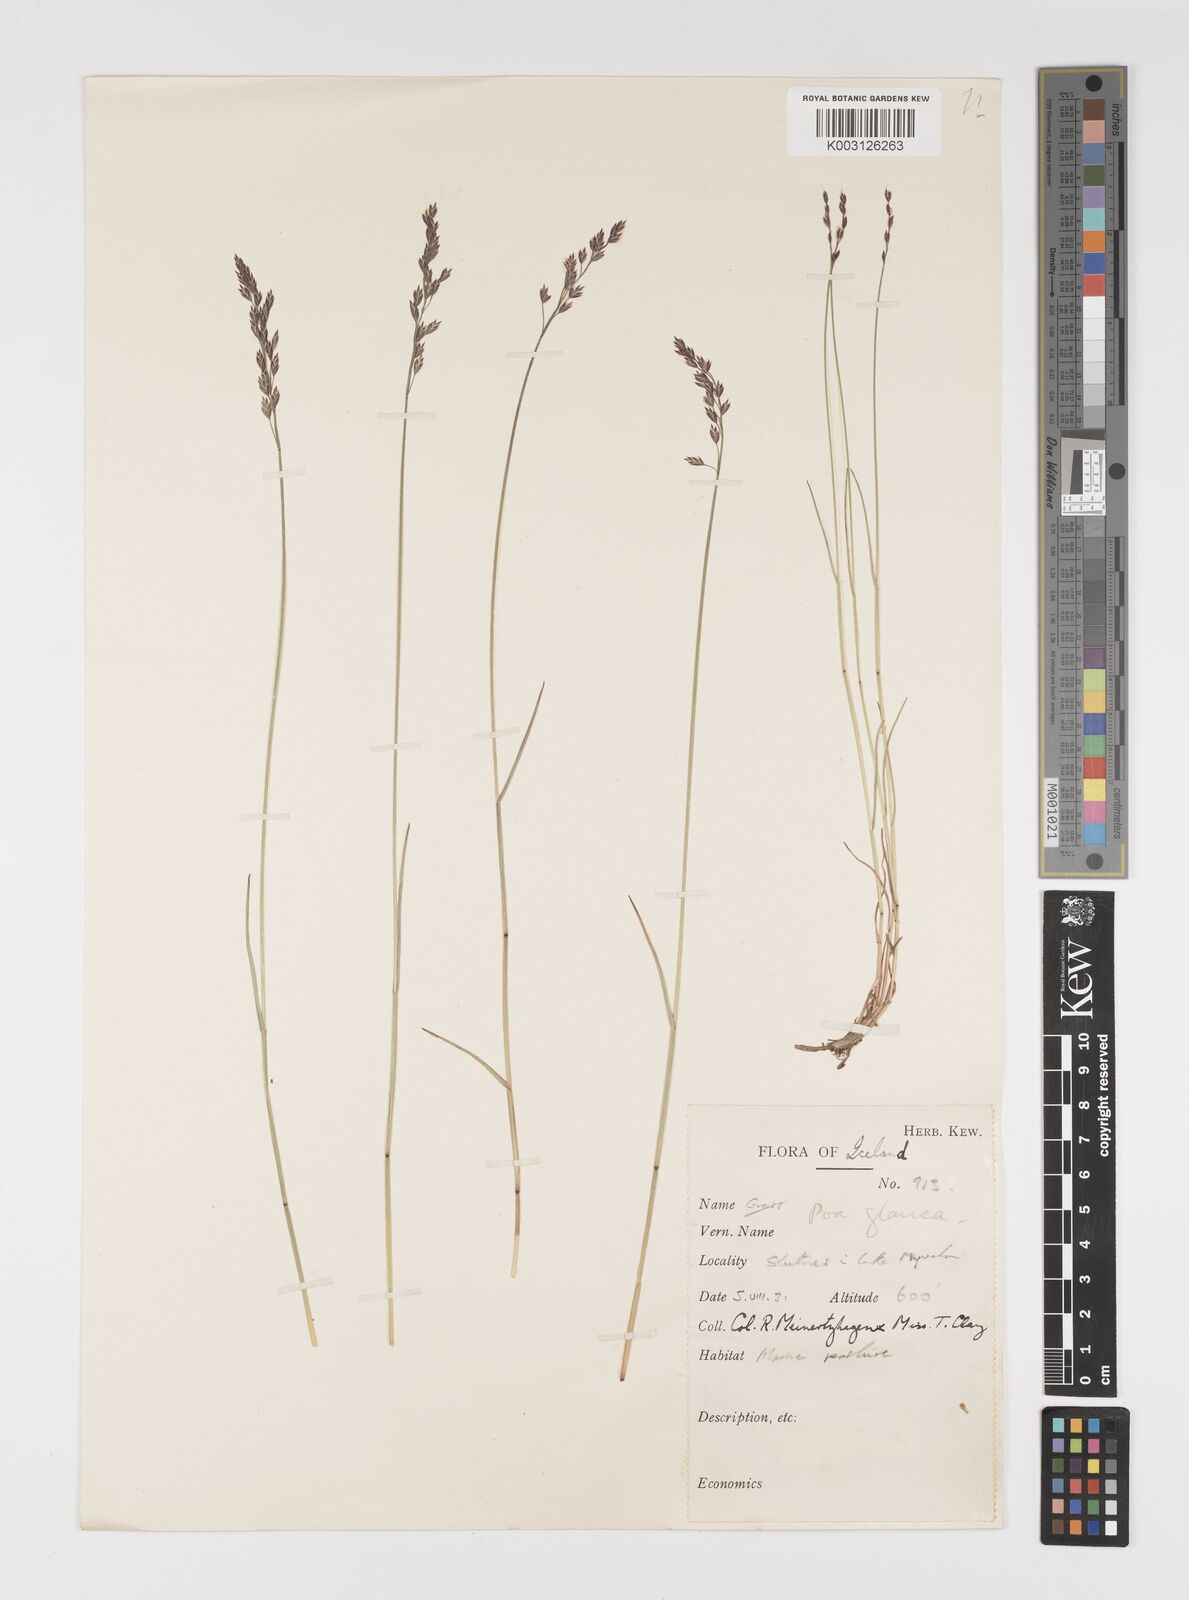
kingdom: Plantae
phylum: Tracheophyta
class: Liliopsida
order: Poales
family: Poaceae
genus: Poa
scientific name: Poa glauca
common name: Glaucous bluegrass
